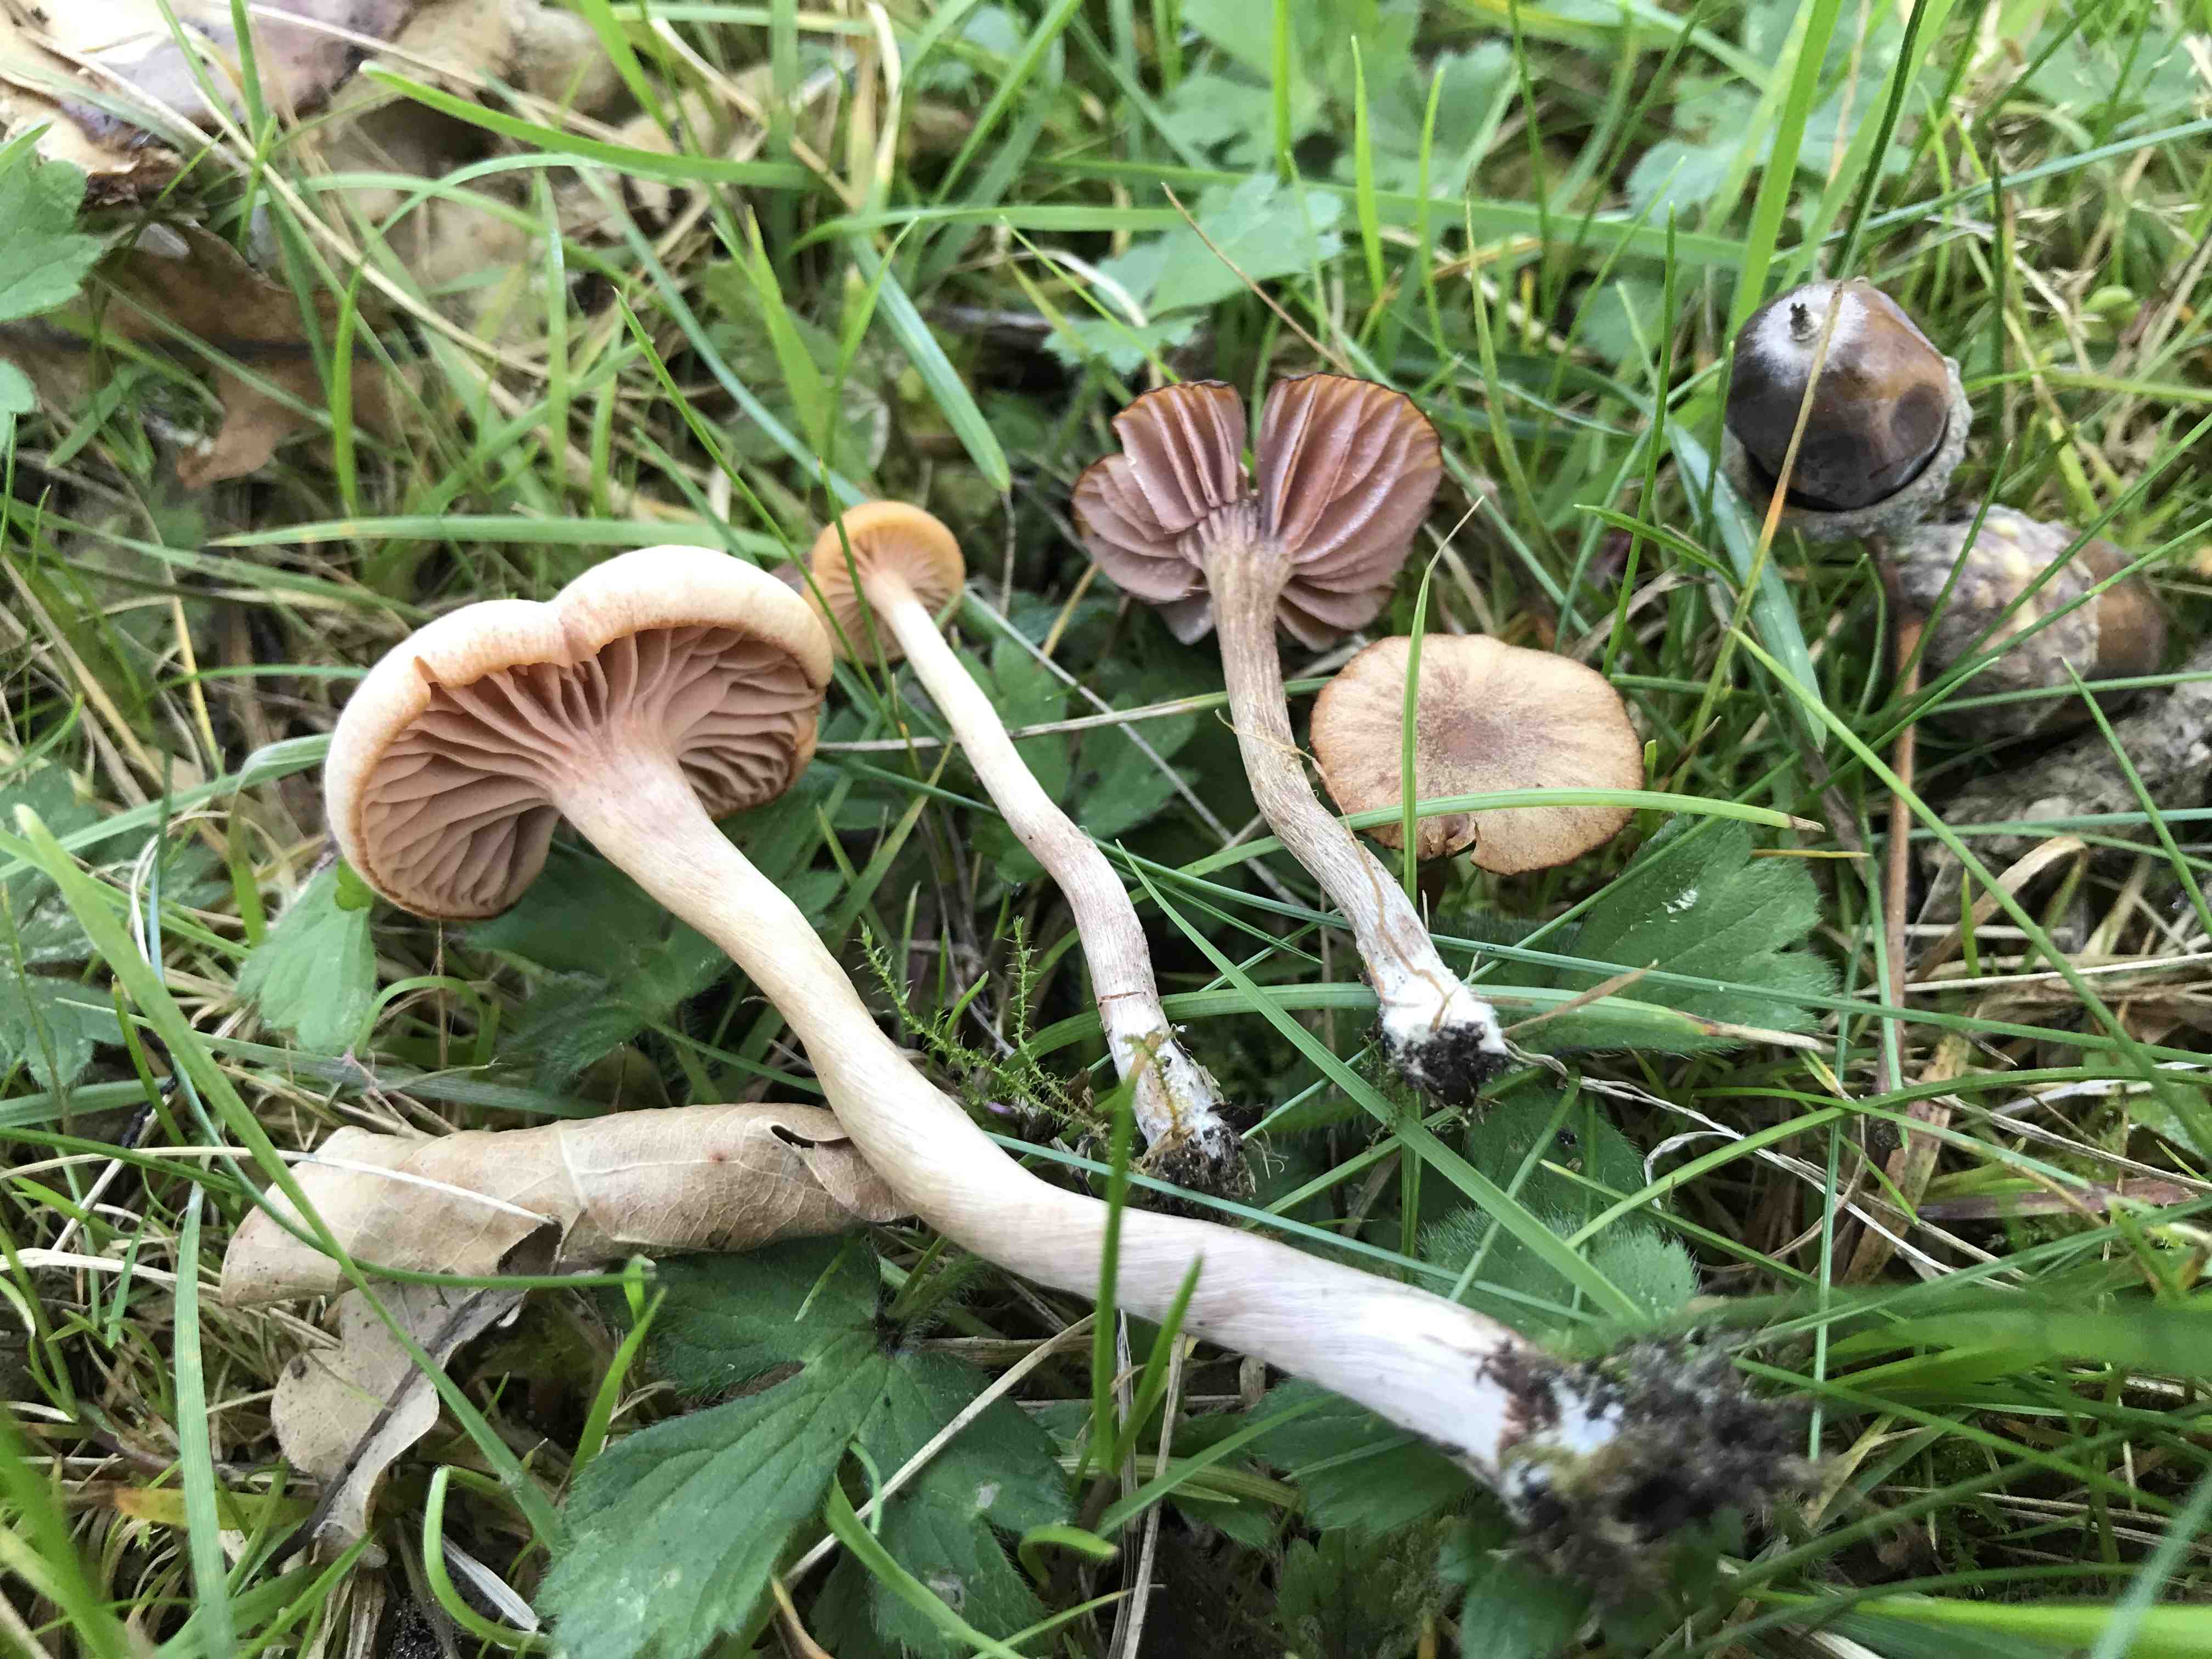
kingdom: Fungi
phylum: Basidiomycota
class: Agaricomycetes
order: Agaricales
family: Hydnangiaceae
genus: Laccaria
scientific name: Laccaria laccata
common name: rød ametysthat
